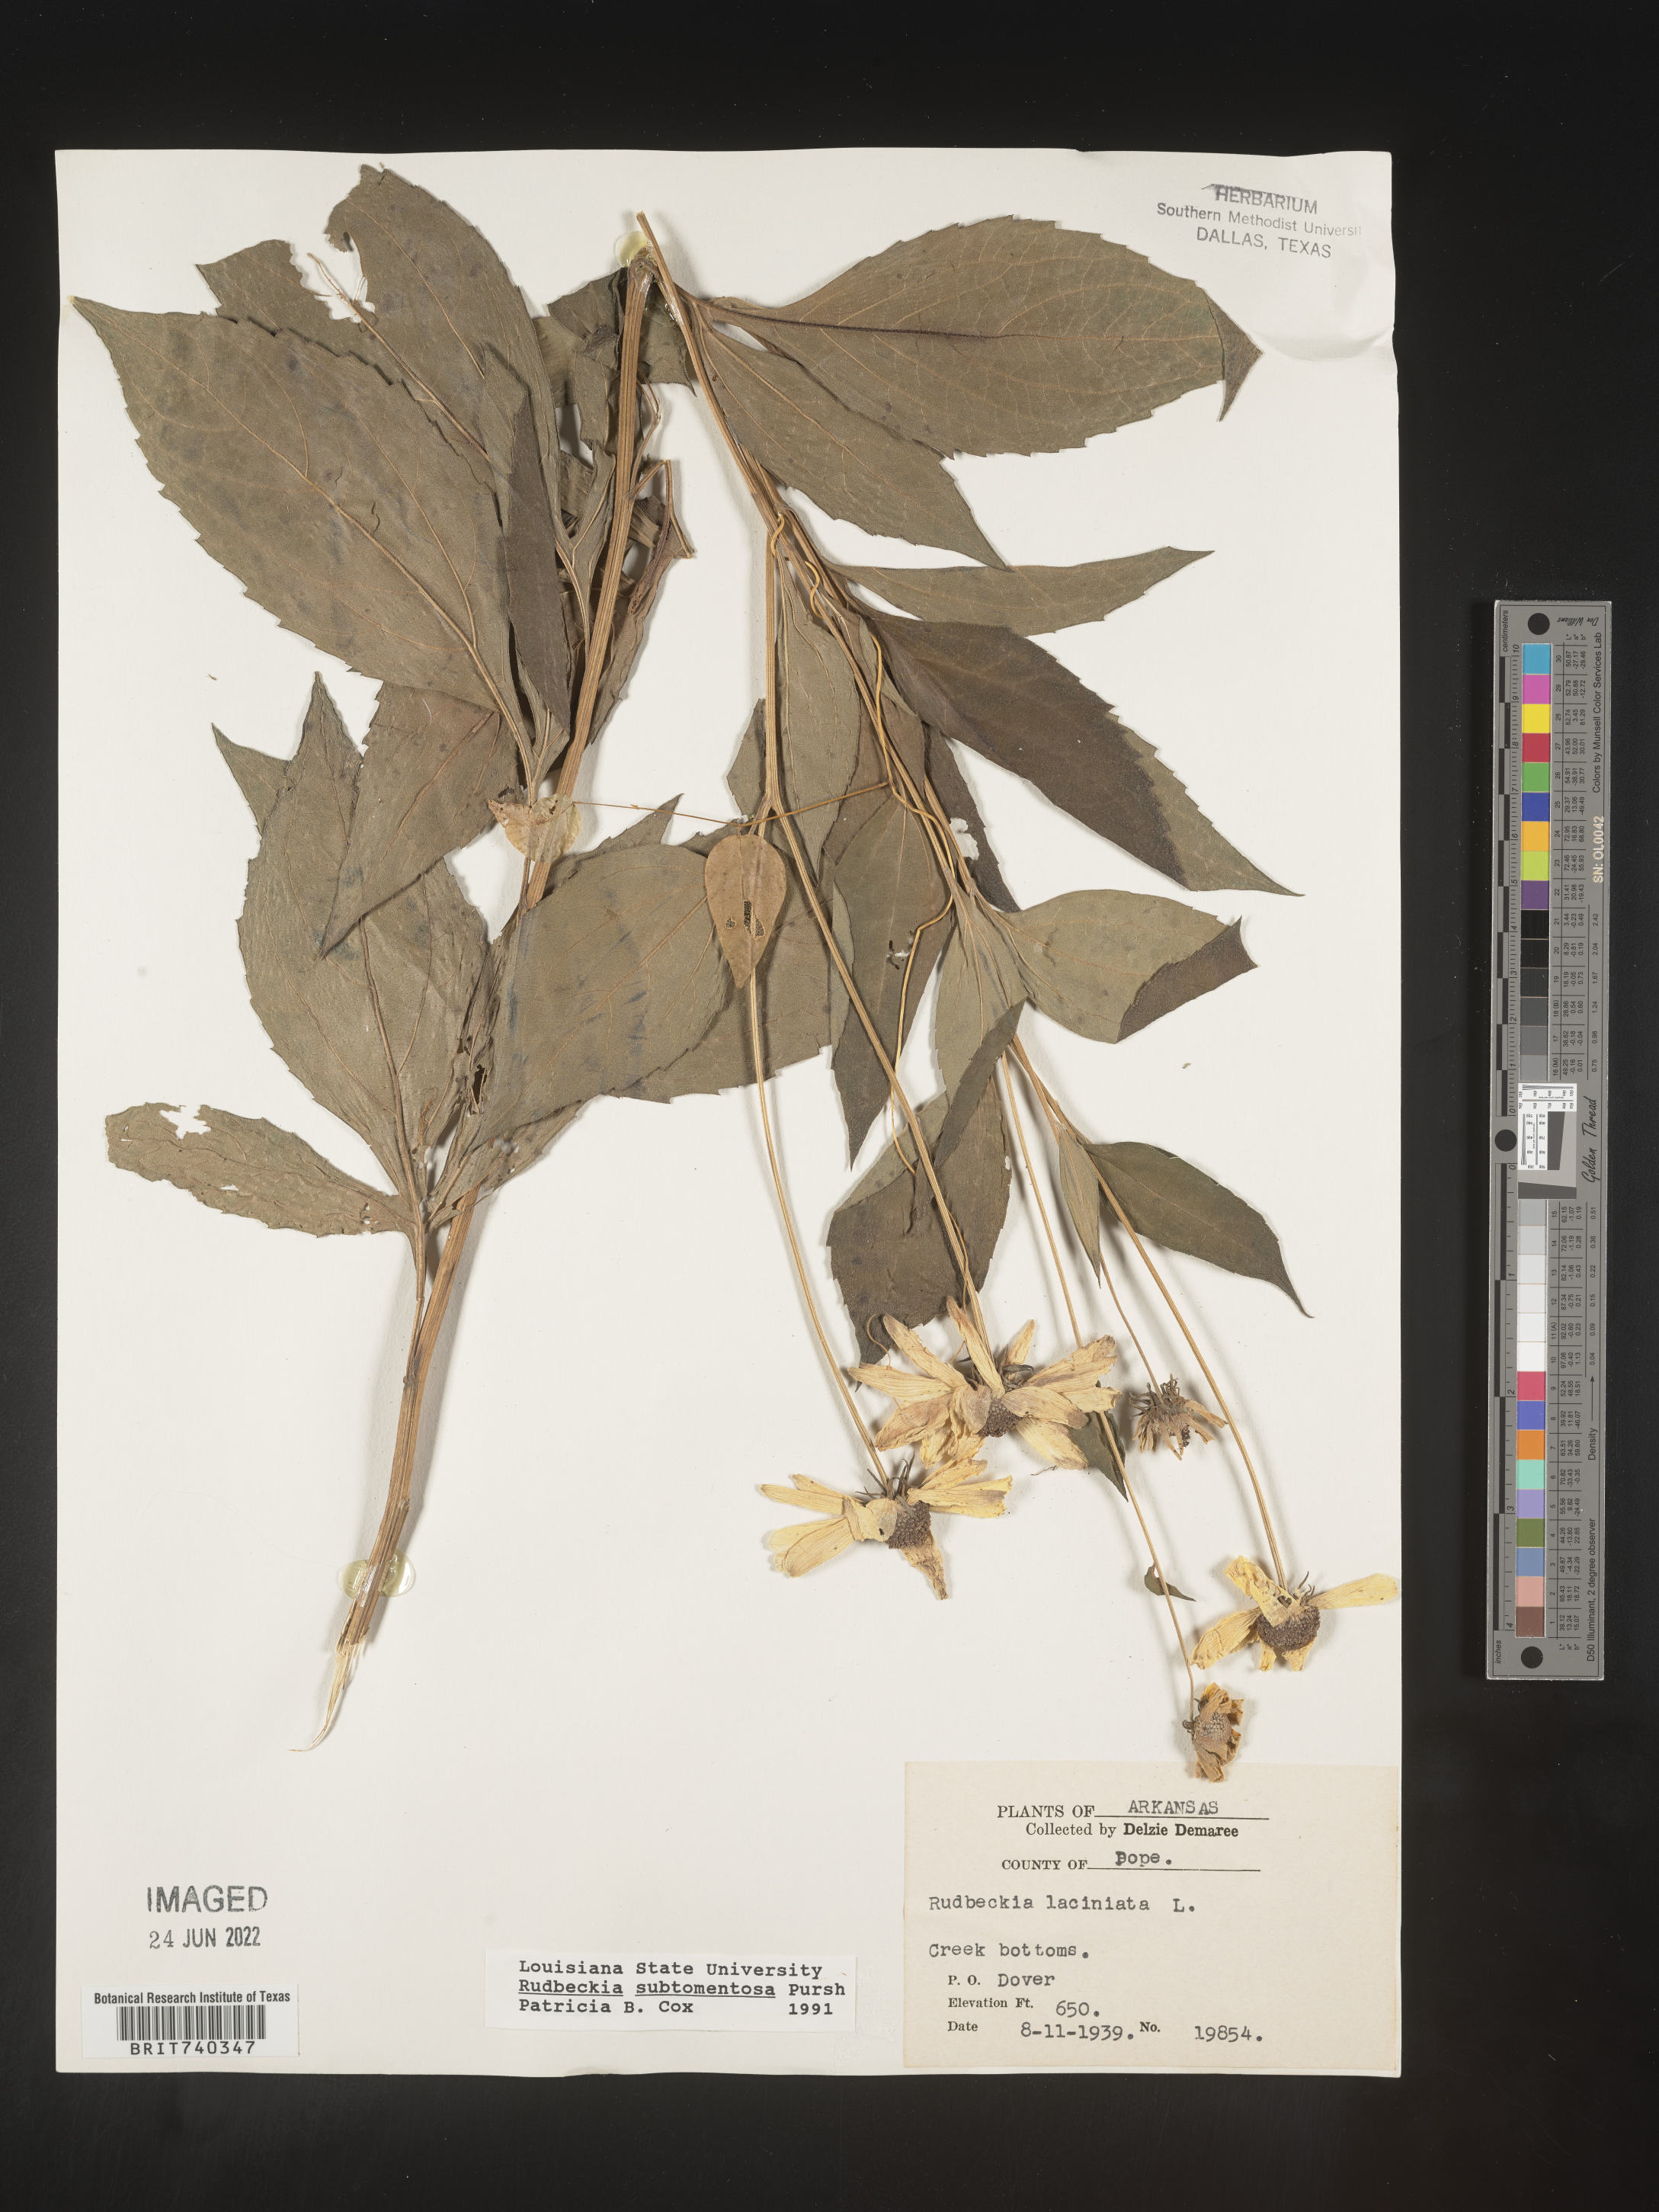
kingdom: Plantae
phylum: Tracheophyta
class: Magnoliopsida
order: Asterales
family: Asteraceae
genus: Rudbeckia
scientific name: Rudbeckia subtomentosa
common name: Sweet coneflower
